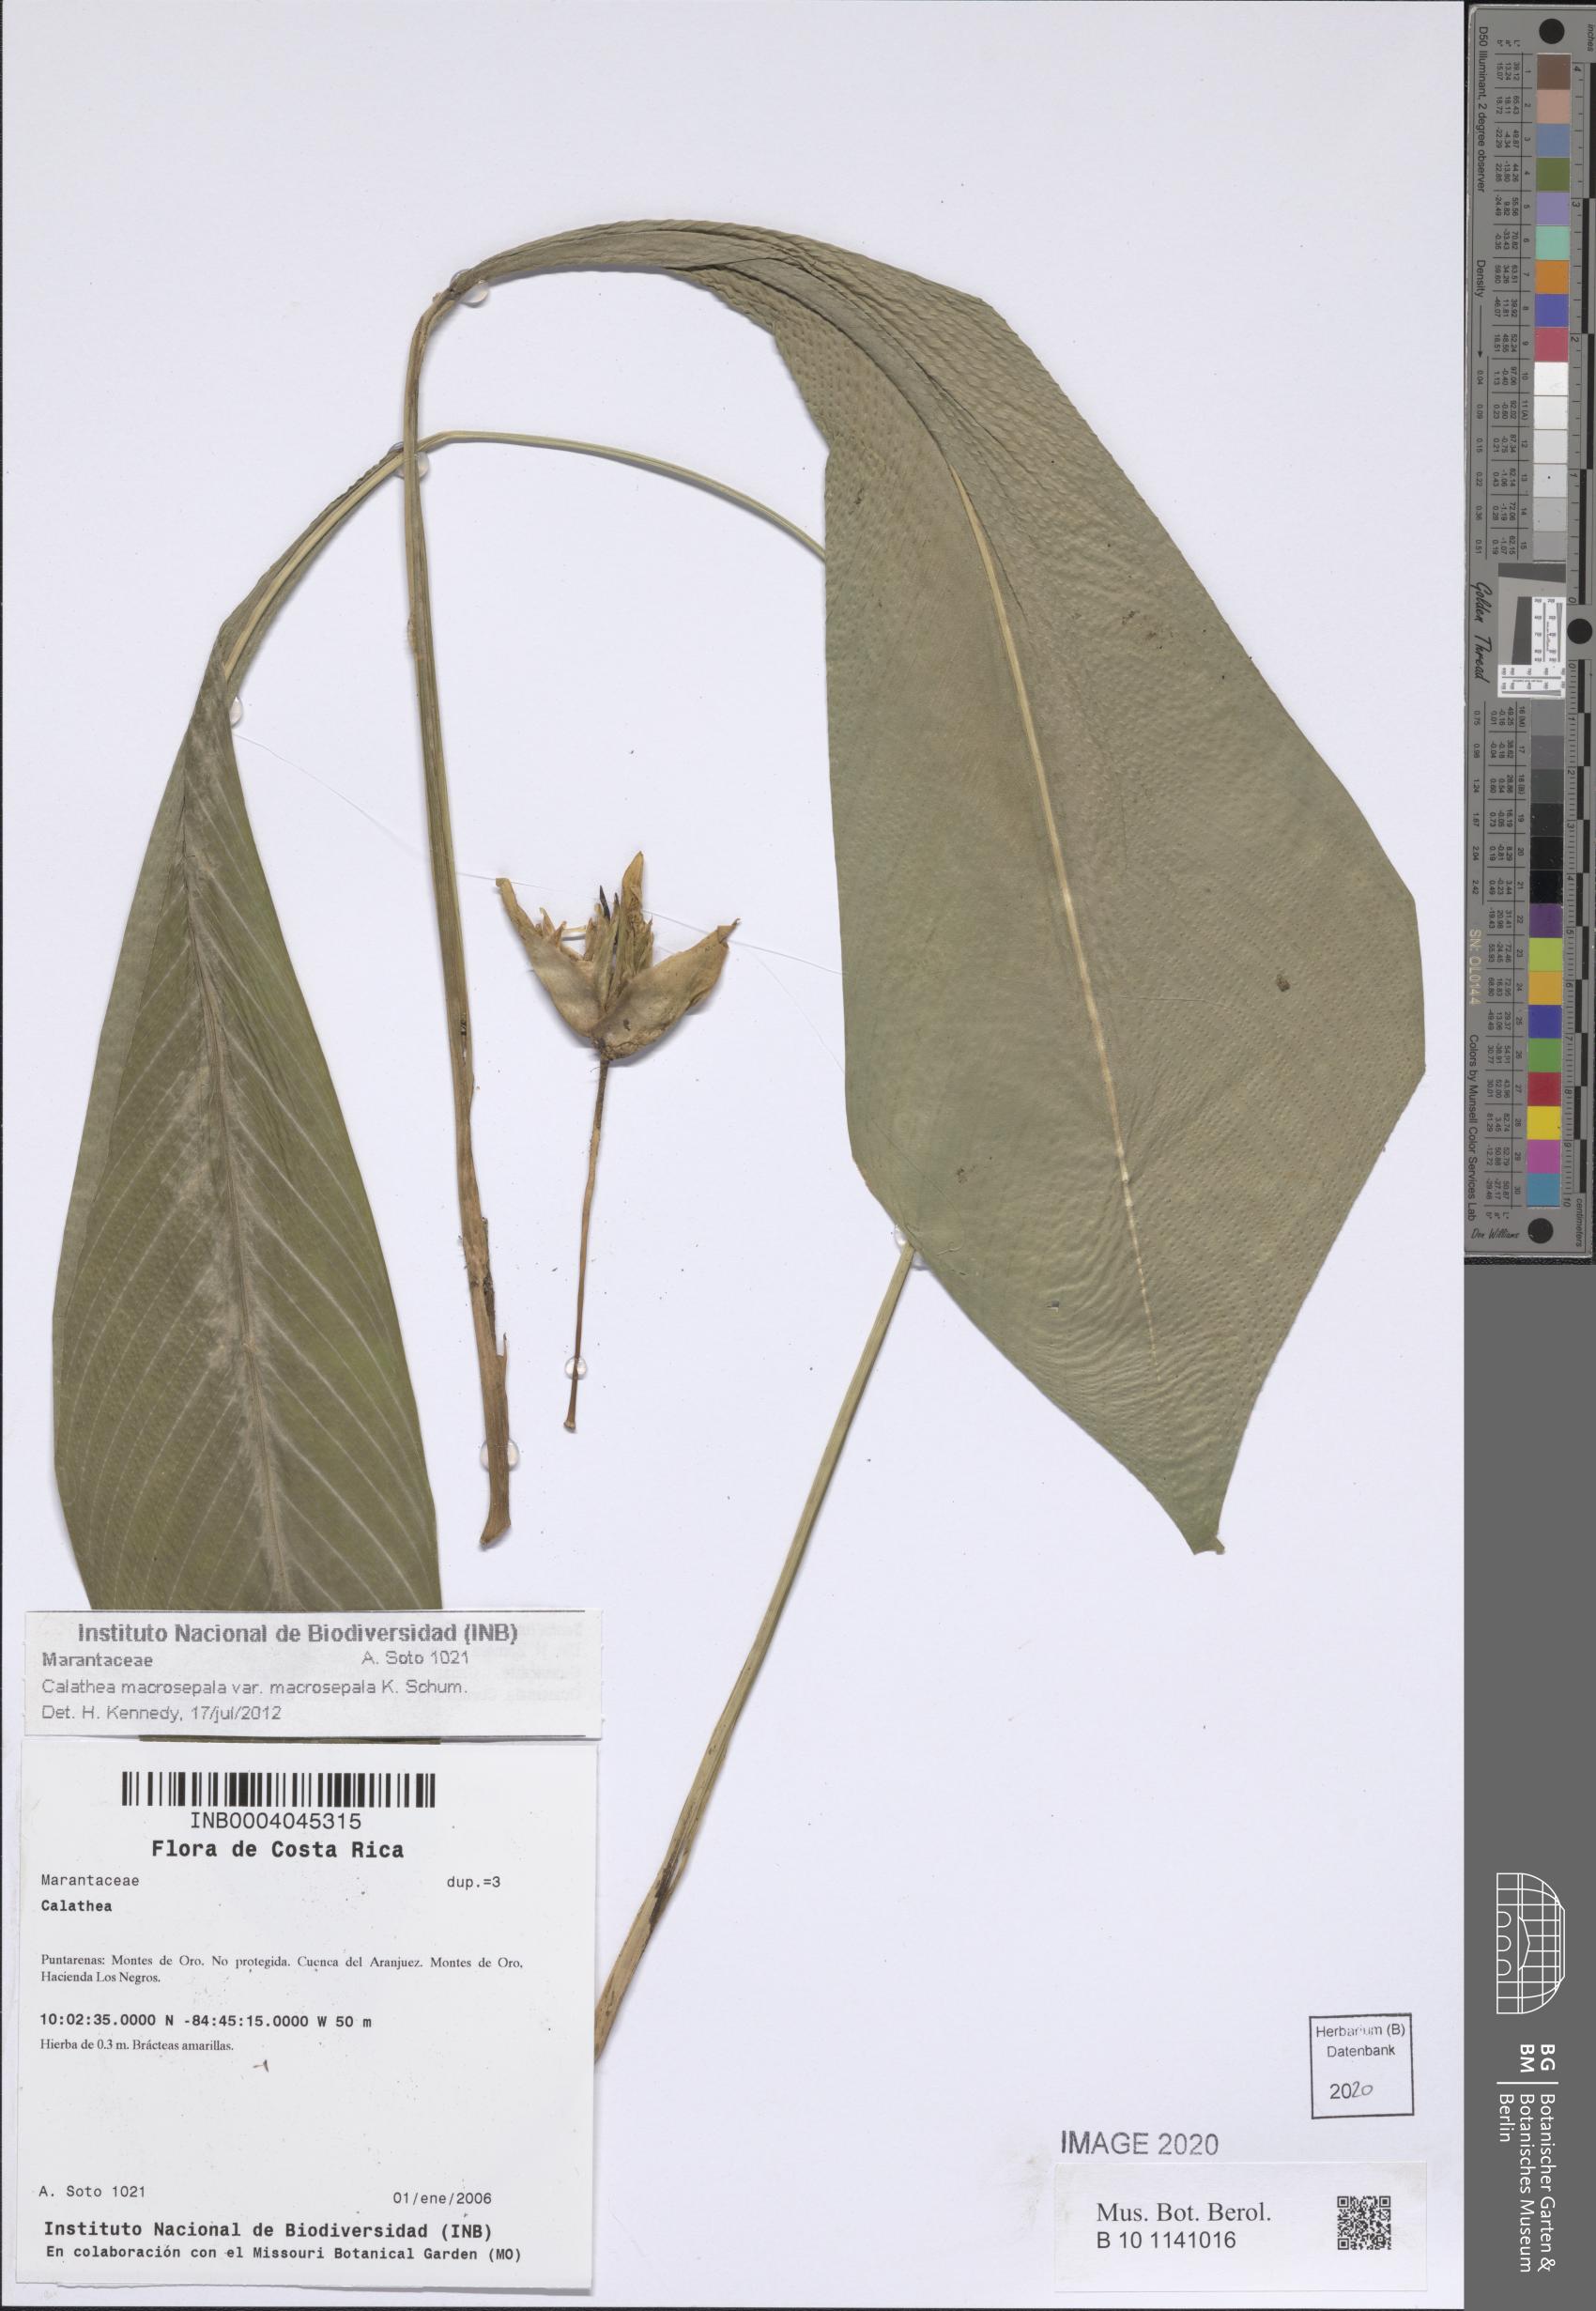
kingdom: Plantae
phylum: Tracheophyta
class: Liliopsida
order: Zingiberales
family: Marantaceae
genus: Goeppertia
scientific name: Goeppertia macrosepala
